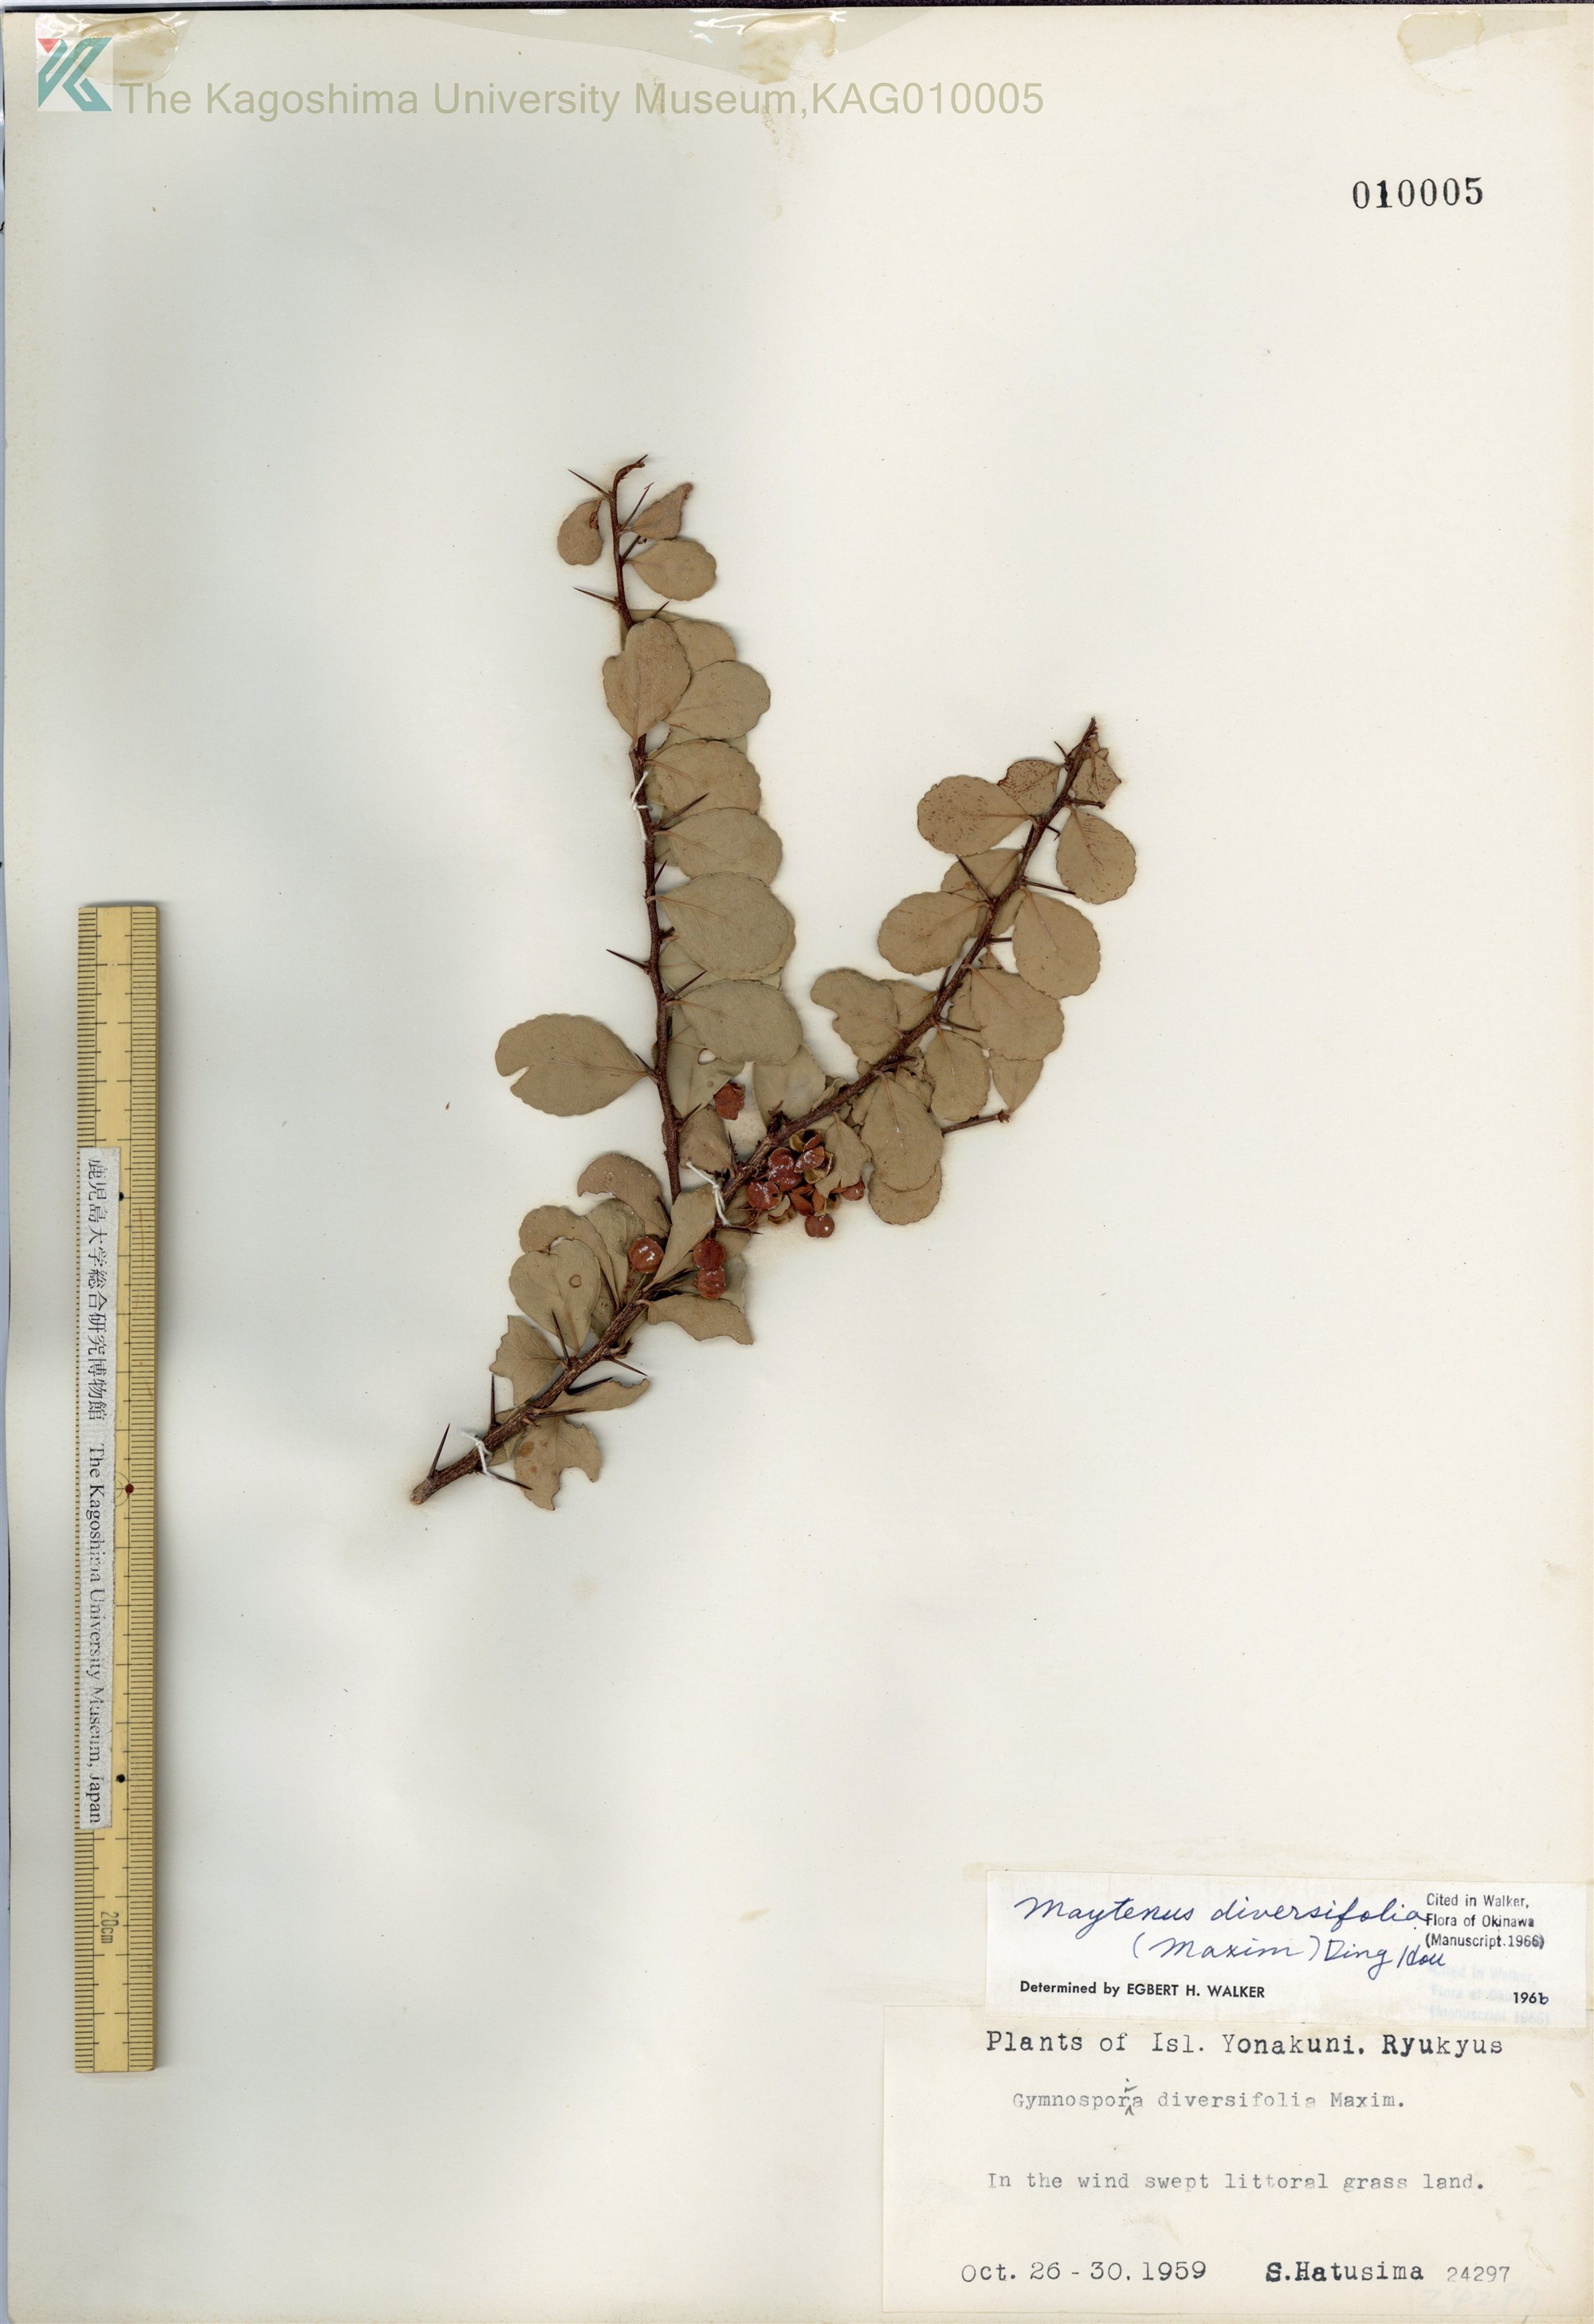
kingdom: Plantae
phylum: Tracheophyta
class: Magnoliopsida
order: Celastrales
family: Celastraceae
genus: Gymnosporia
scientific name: Gymnosporia diversifolia
